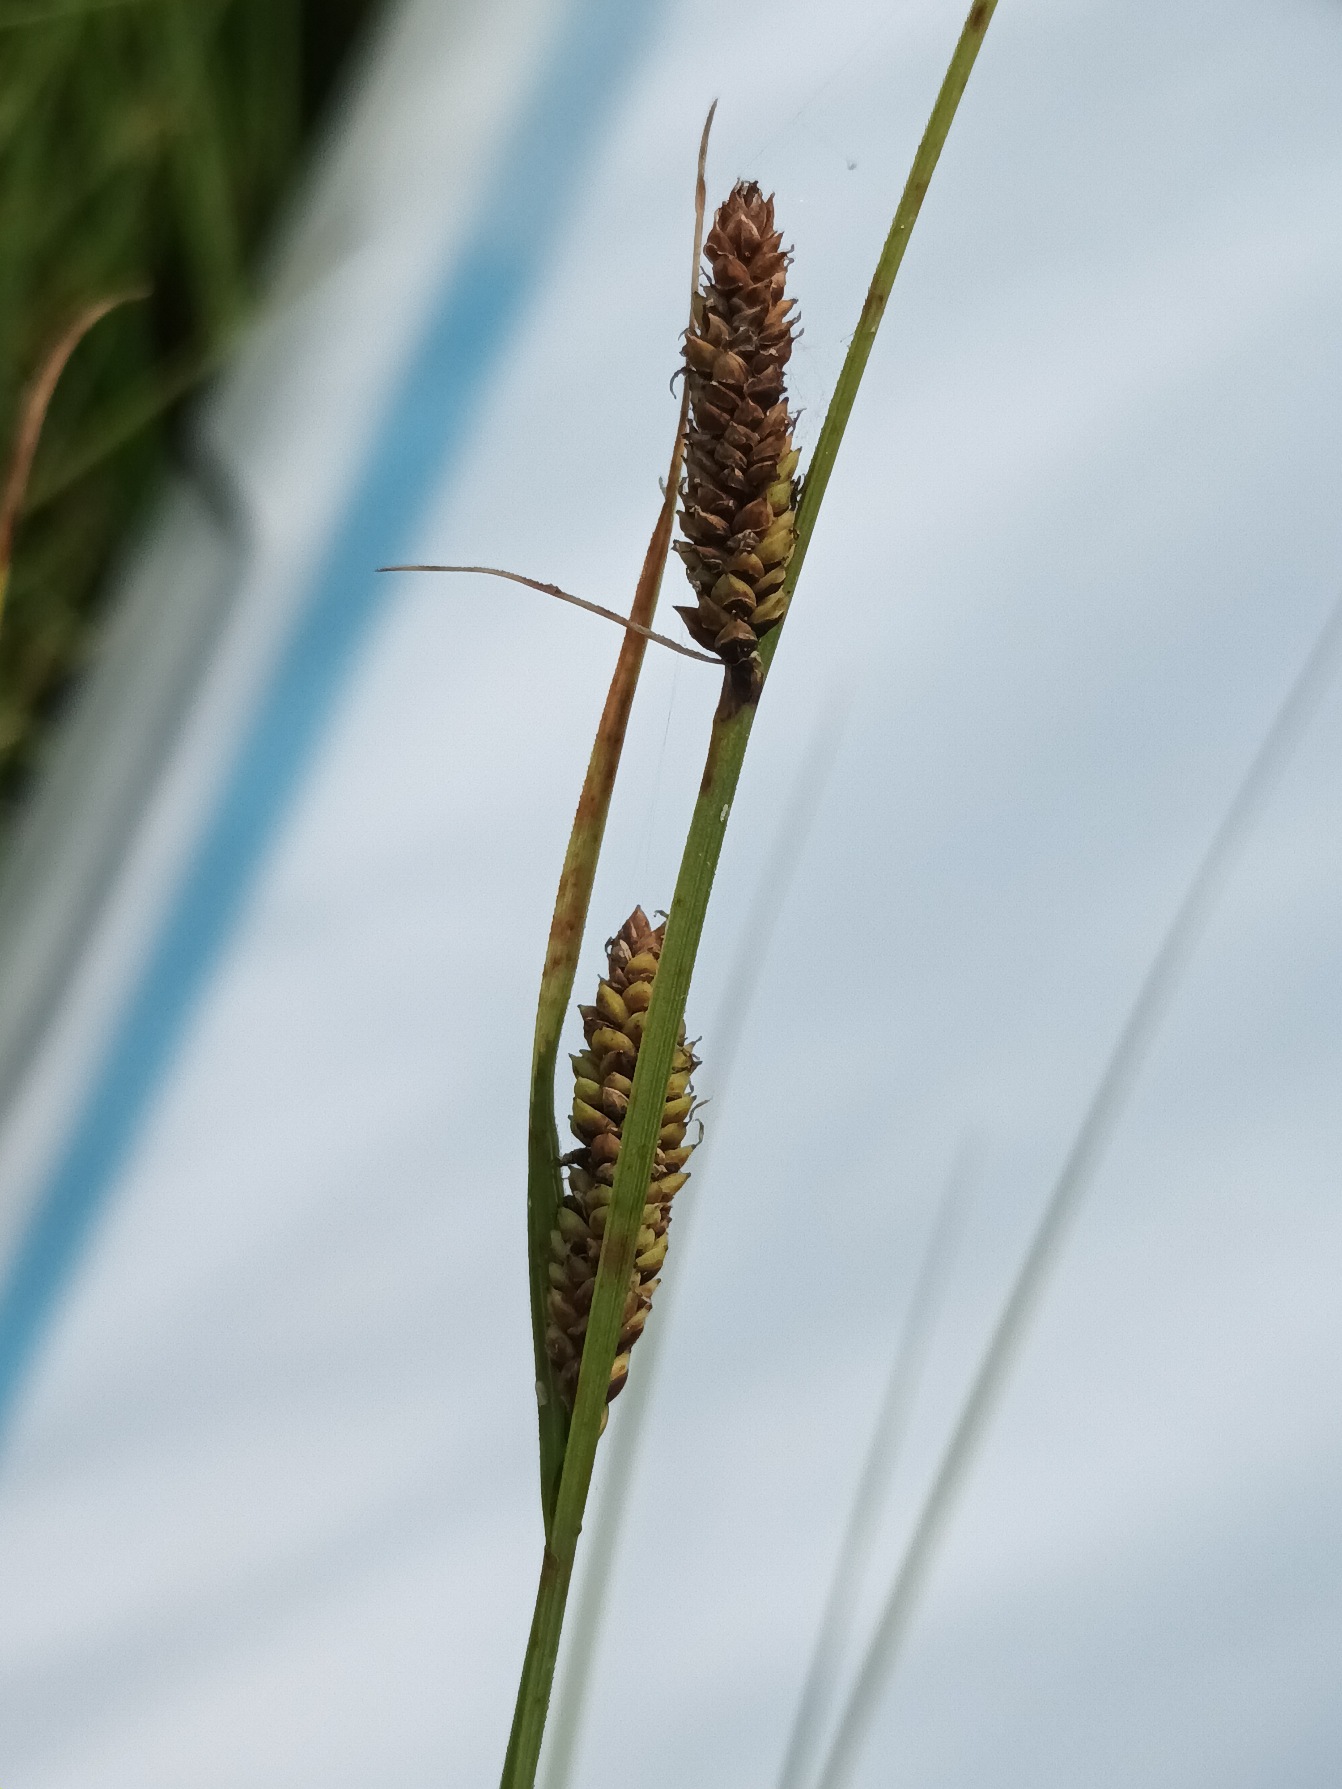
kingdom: Plantae
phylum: Tracheophyta
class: Liliopsida
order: Poales
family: Cyperaceae
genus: Carex
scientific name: Carex nigra
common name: Almindelig star
